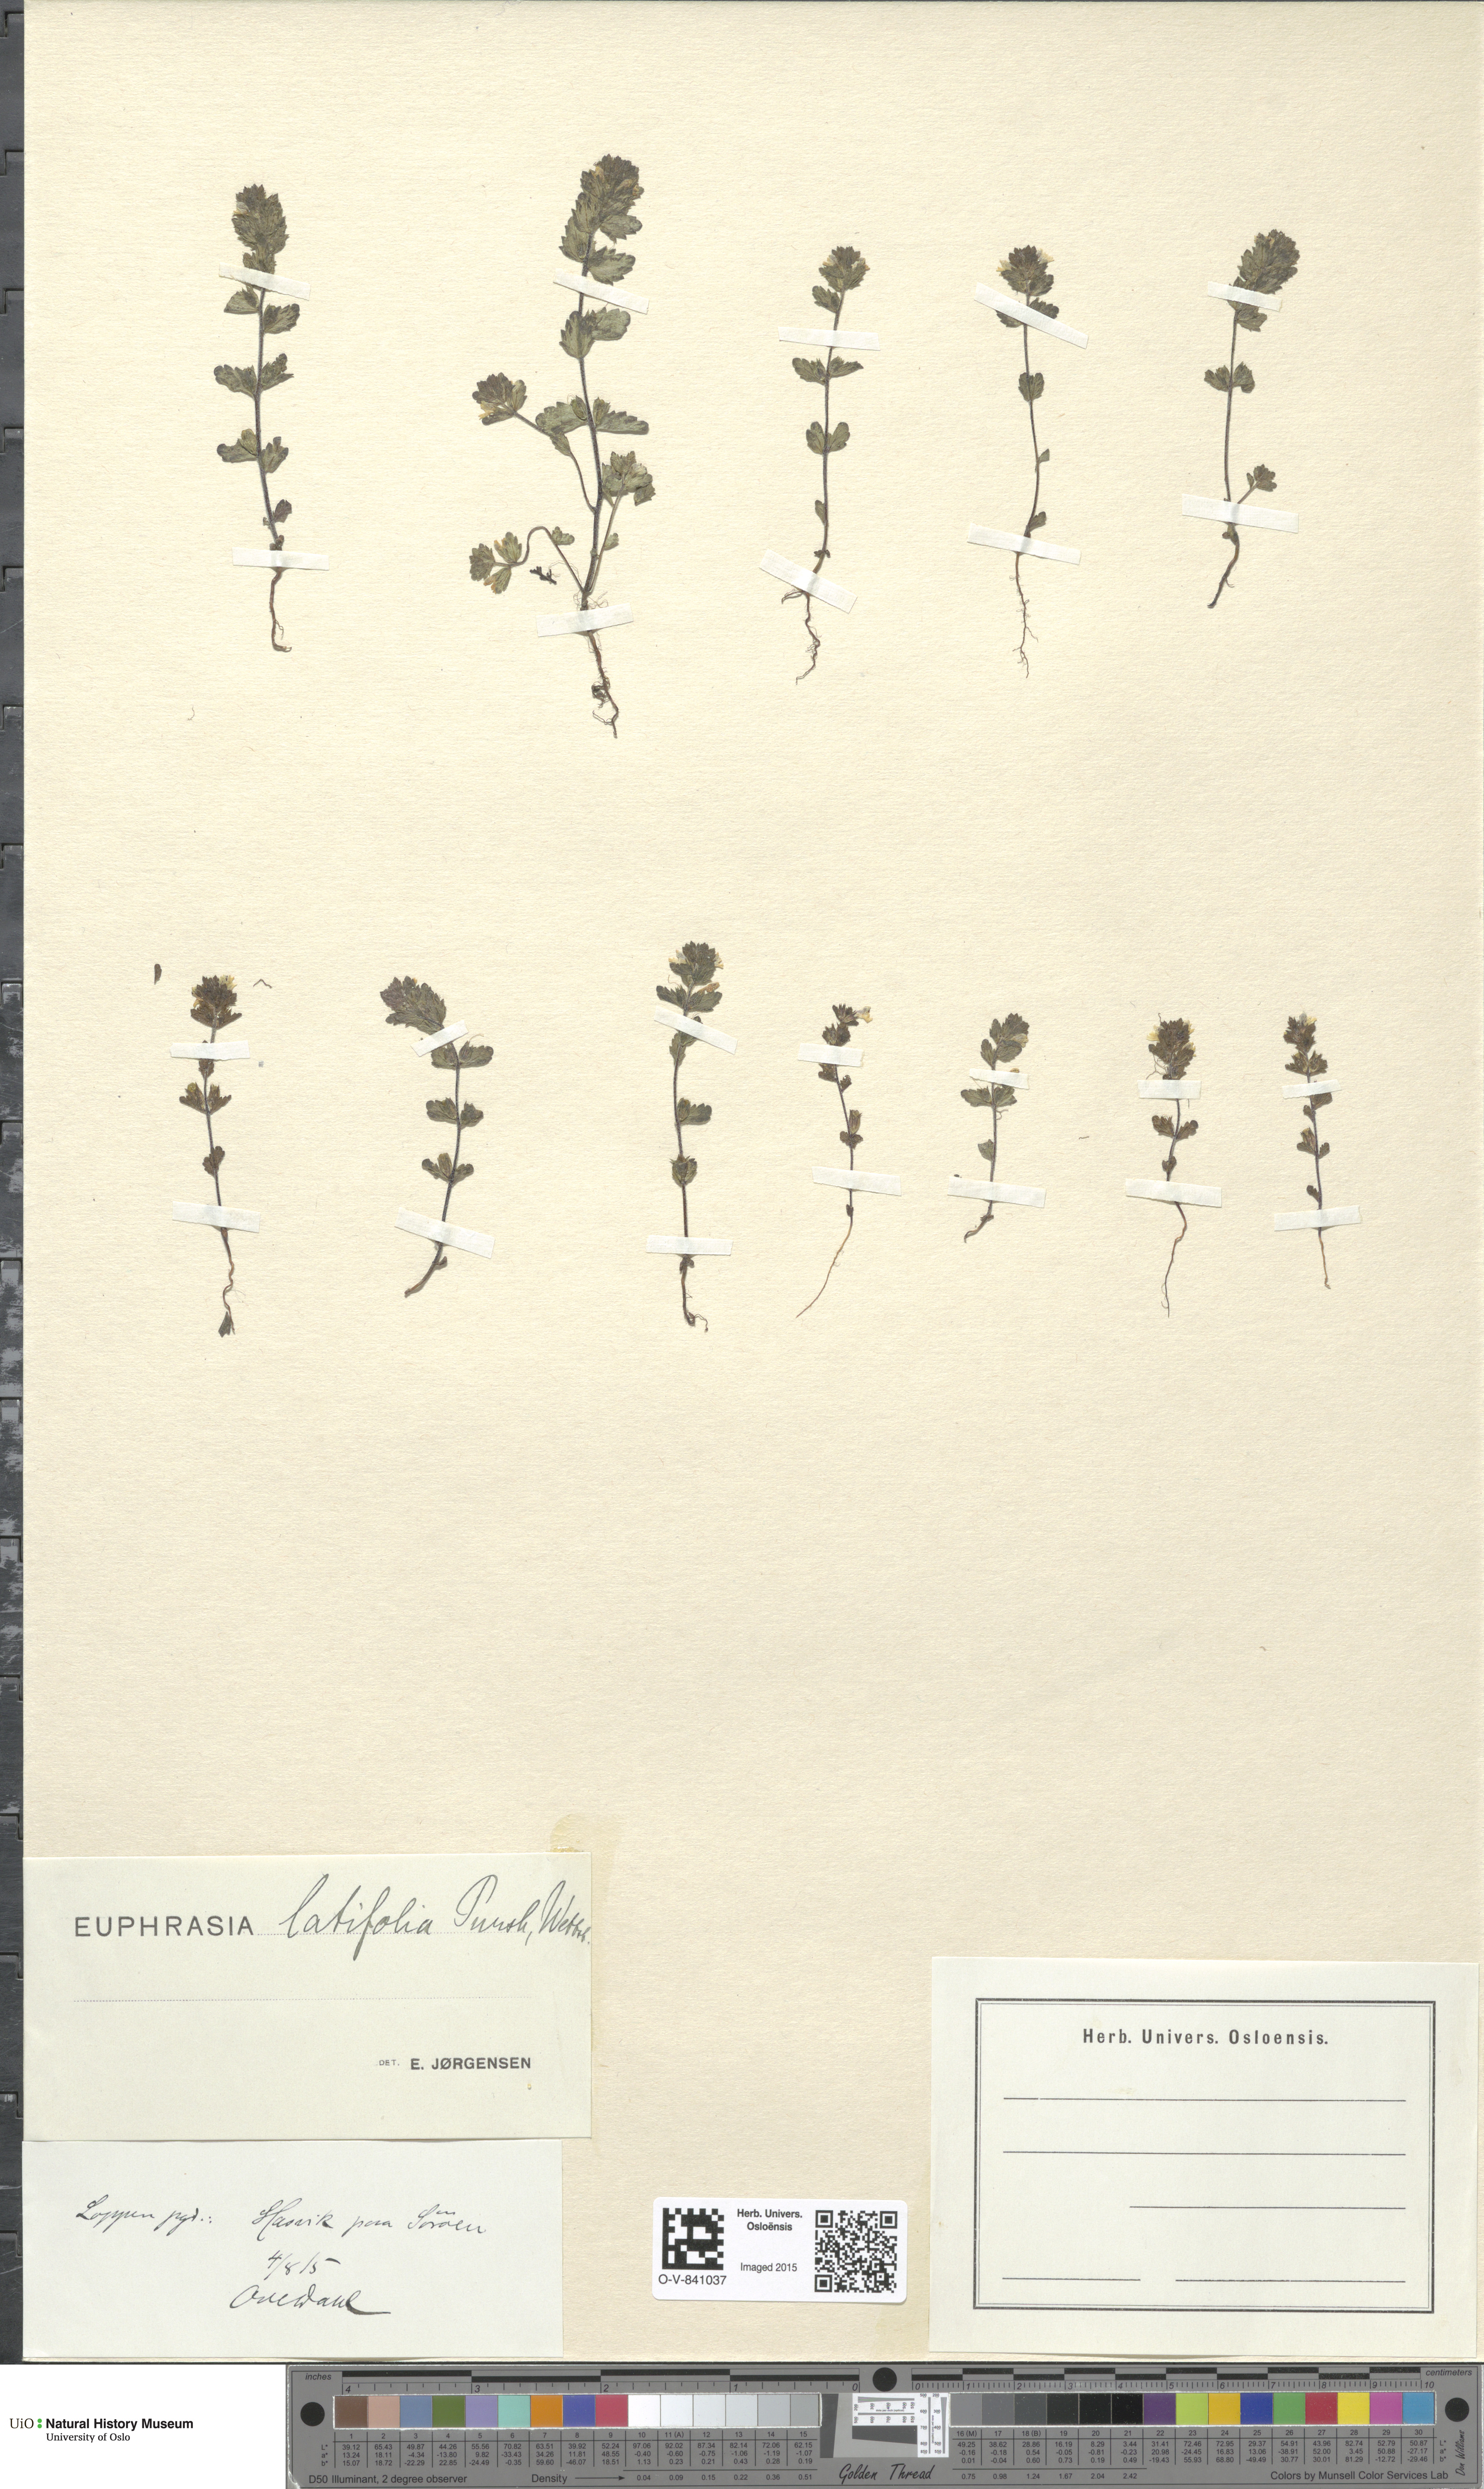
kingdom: Plantae
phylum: Tracheophyta
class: Magnoliopsida
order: Lamiales
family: Orobanchaceae
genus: Euphrasia
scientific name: Euphrasia wettsteinii
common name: Wettstein's eyebright
